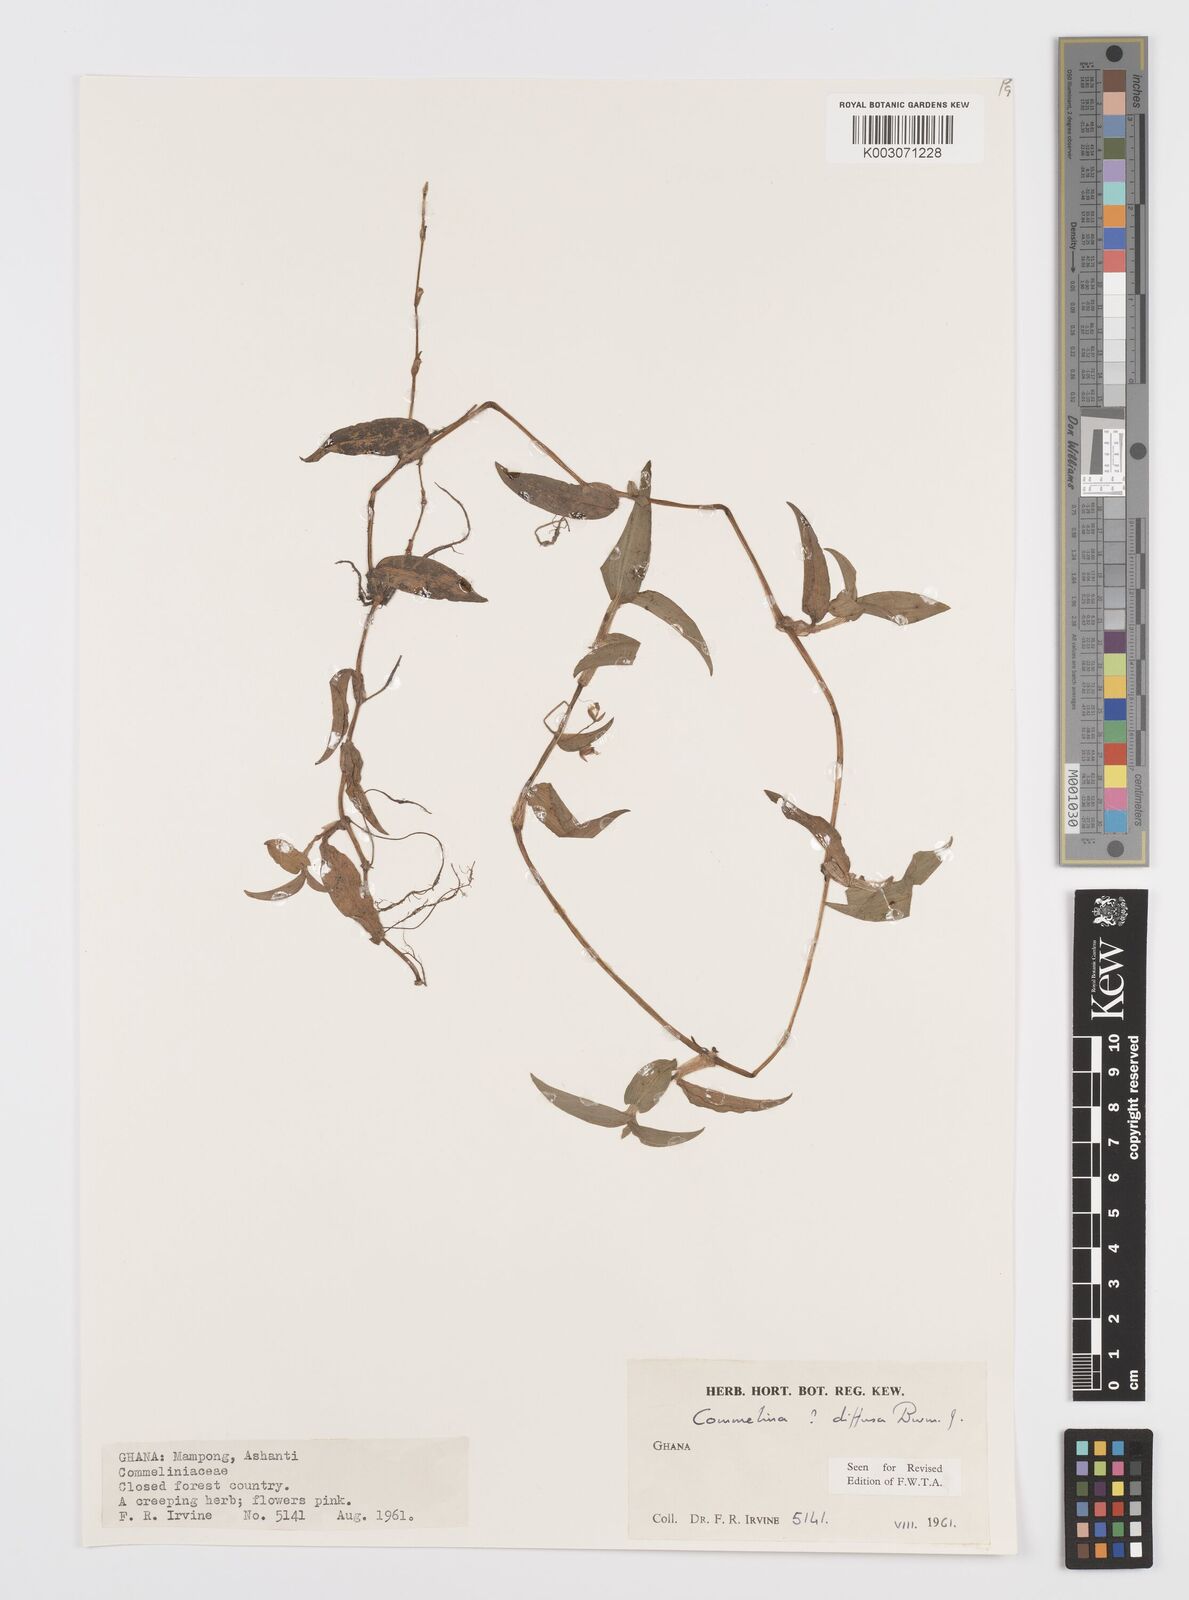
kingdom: Plantae
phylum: Tracheophyta
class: Liliopsida
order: Commelinales
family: Commelinaceae
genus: Commelina
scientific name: Commelina diffusa
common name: Climbing dayflower
